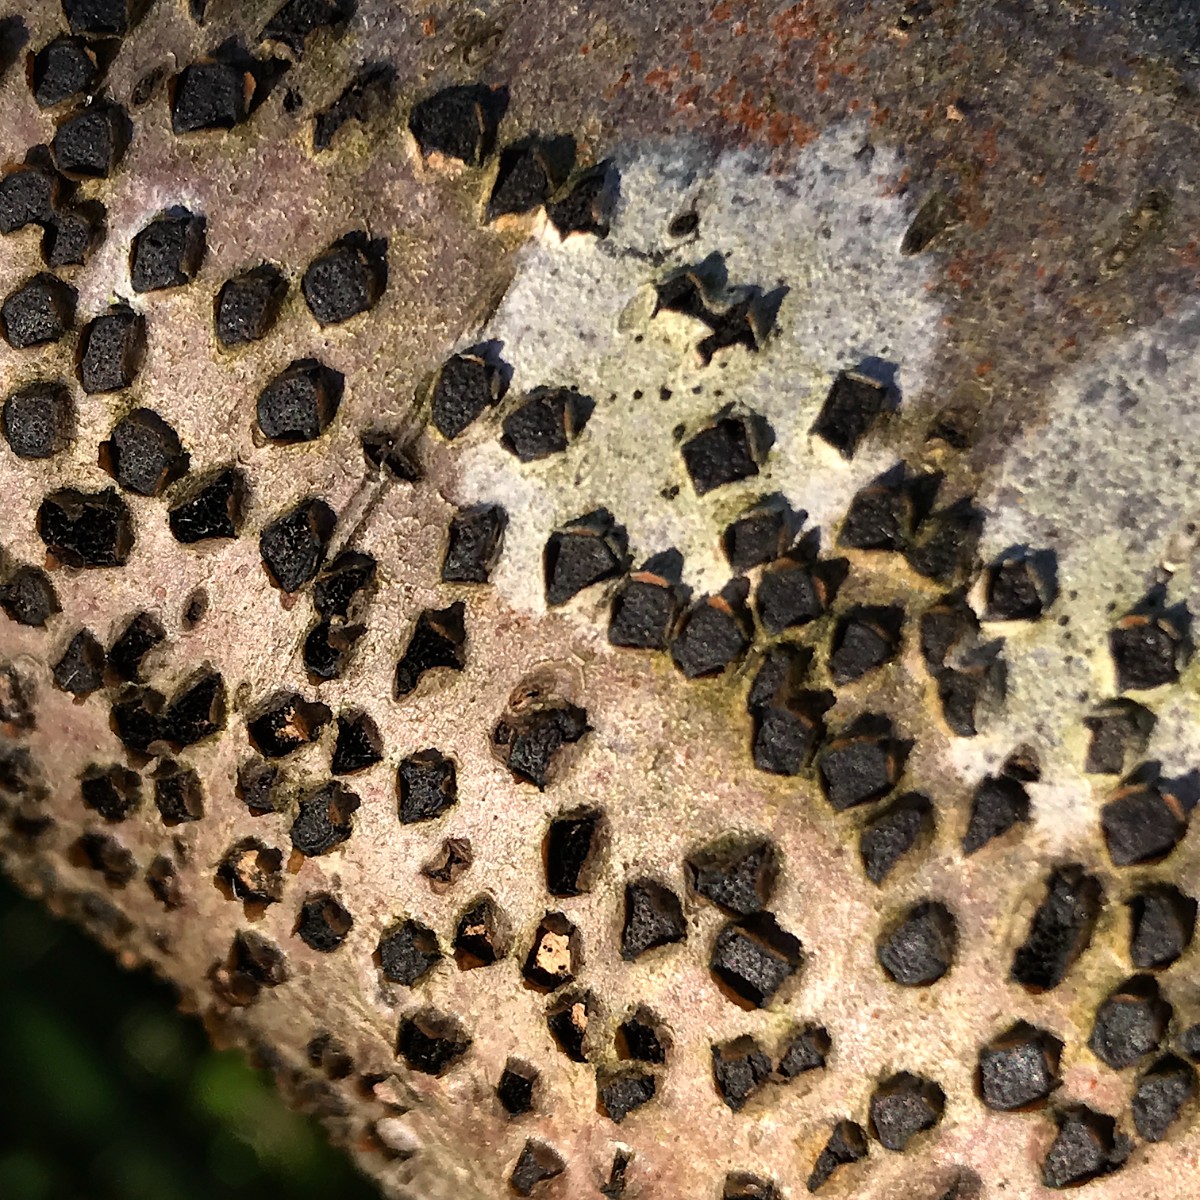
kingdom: Fungi
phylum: Ascomycota
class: Sordariomycetes
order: Xylariales
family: Diatrypaceae
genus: Diatrype
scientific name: Diatrype disciformis
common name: kant-kulskorpe
